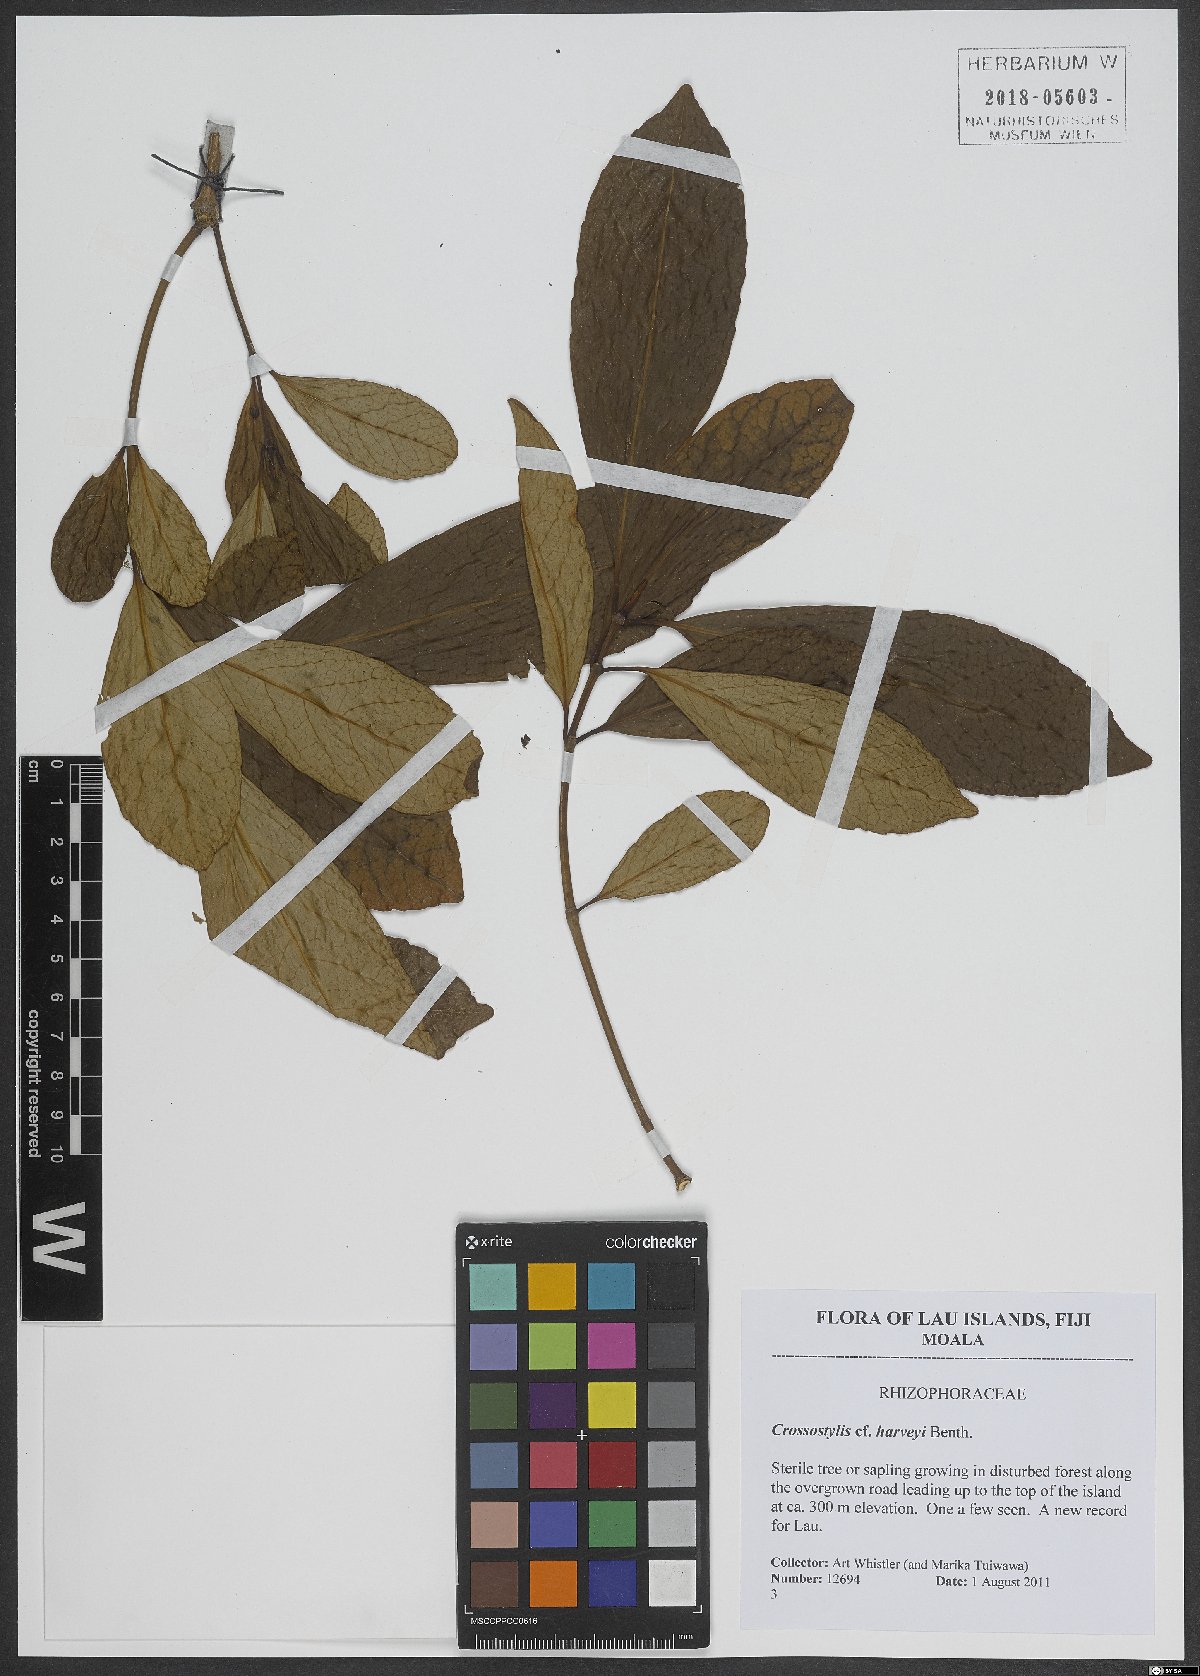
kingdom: Plantae
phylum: Tracheophyta
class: Magnoliopsida
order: Malpighiales
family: Rhizophoraceae
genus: Crossostylis
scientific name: Crossostylis harveyi
